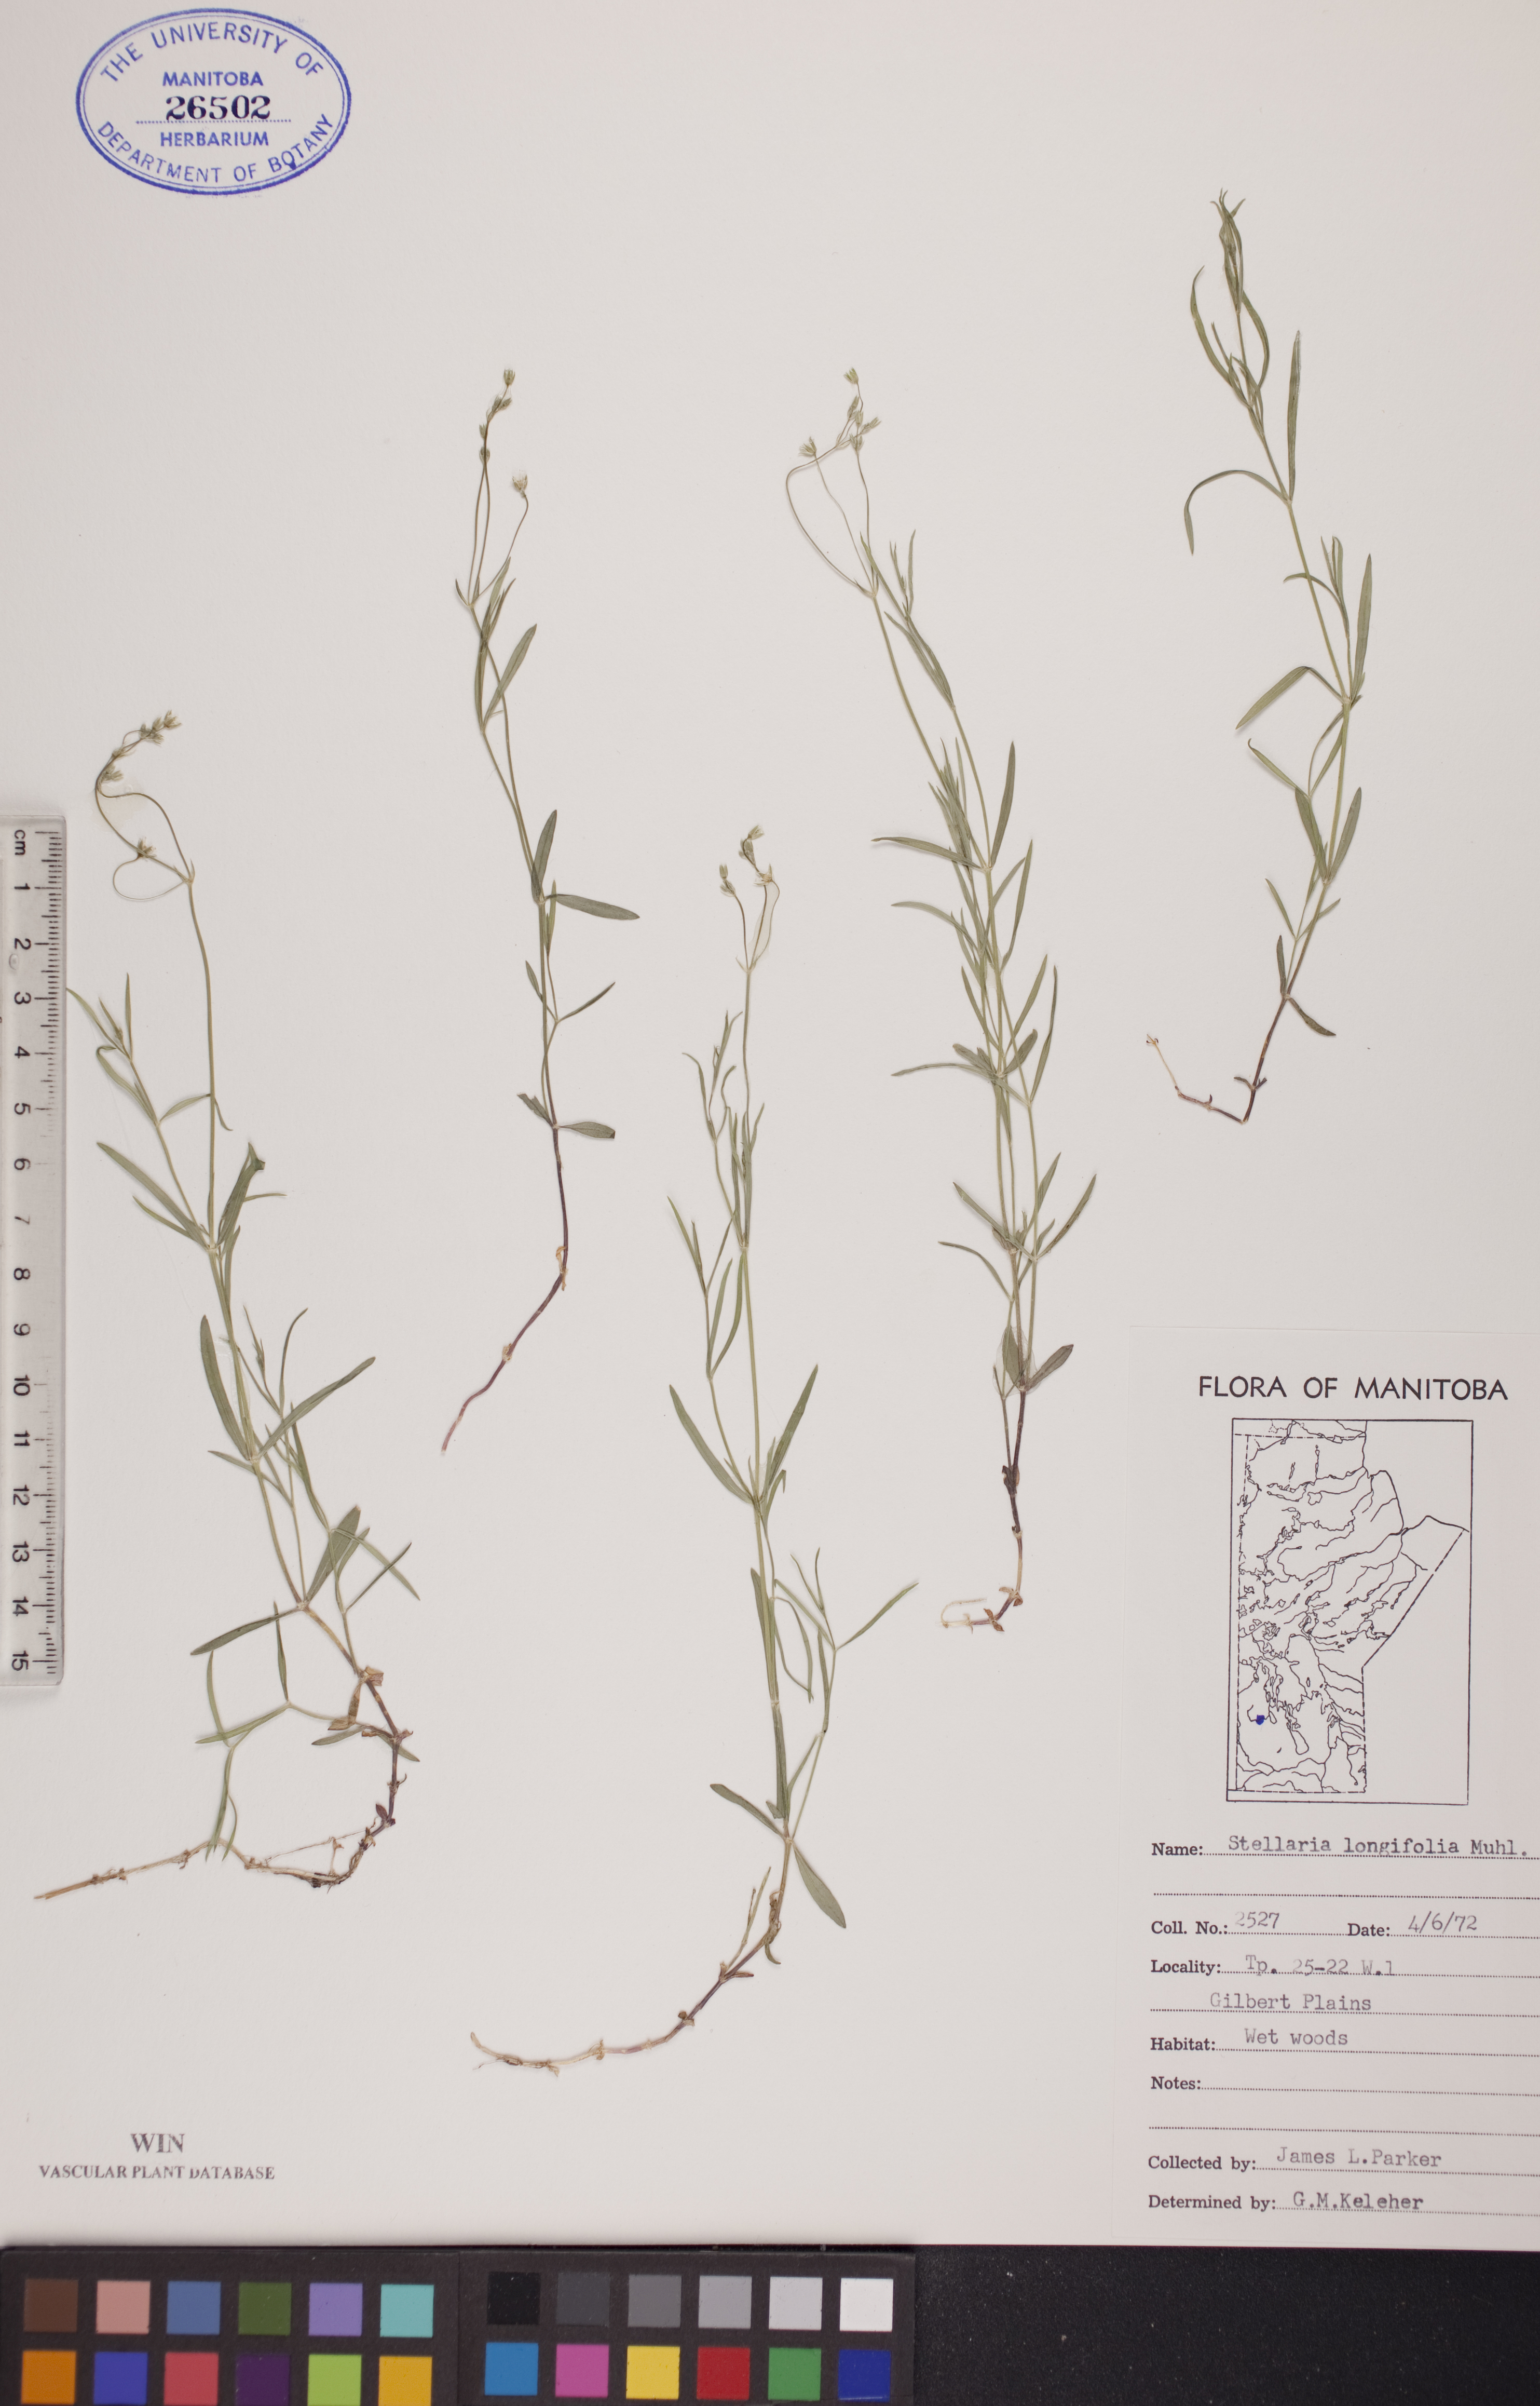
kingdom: Plantae
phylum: Tracheophyta
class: Magnoliopsida
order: Caryophyllales
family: Caryophyllaceae
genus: Stellaria
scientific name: Stellaria longifolia
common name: Long-leaved chickweed
